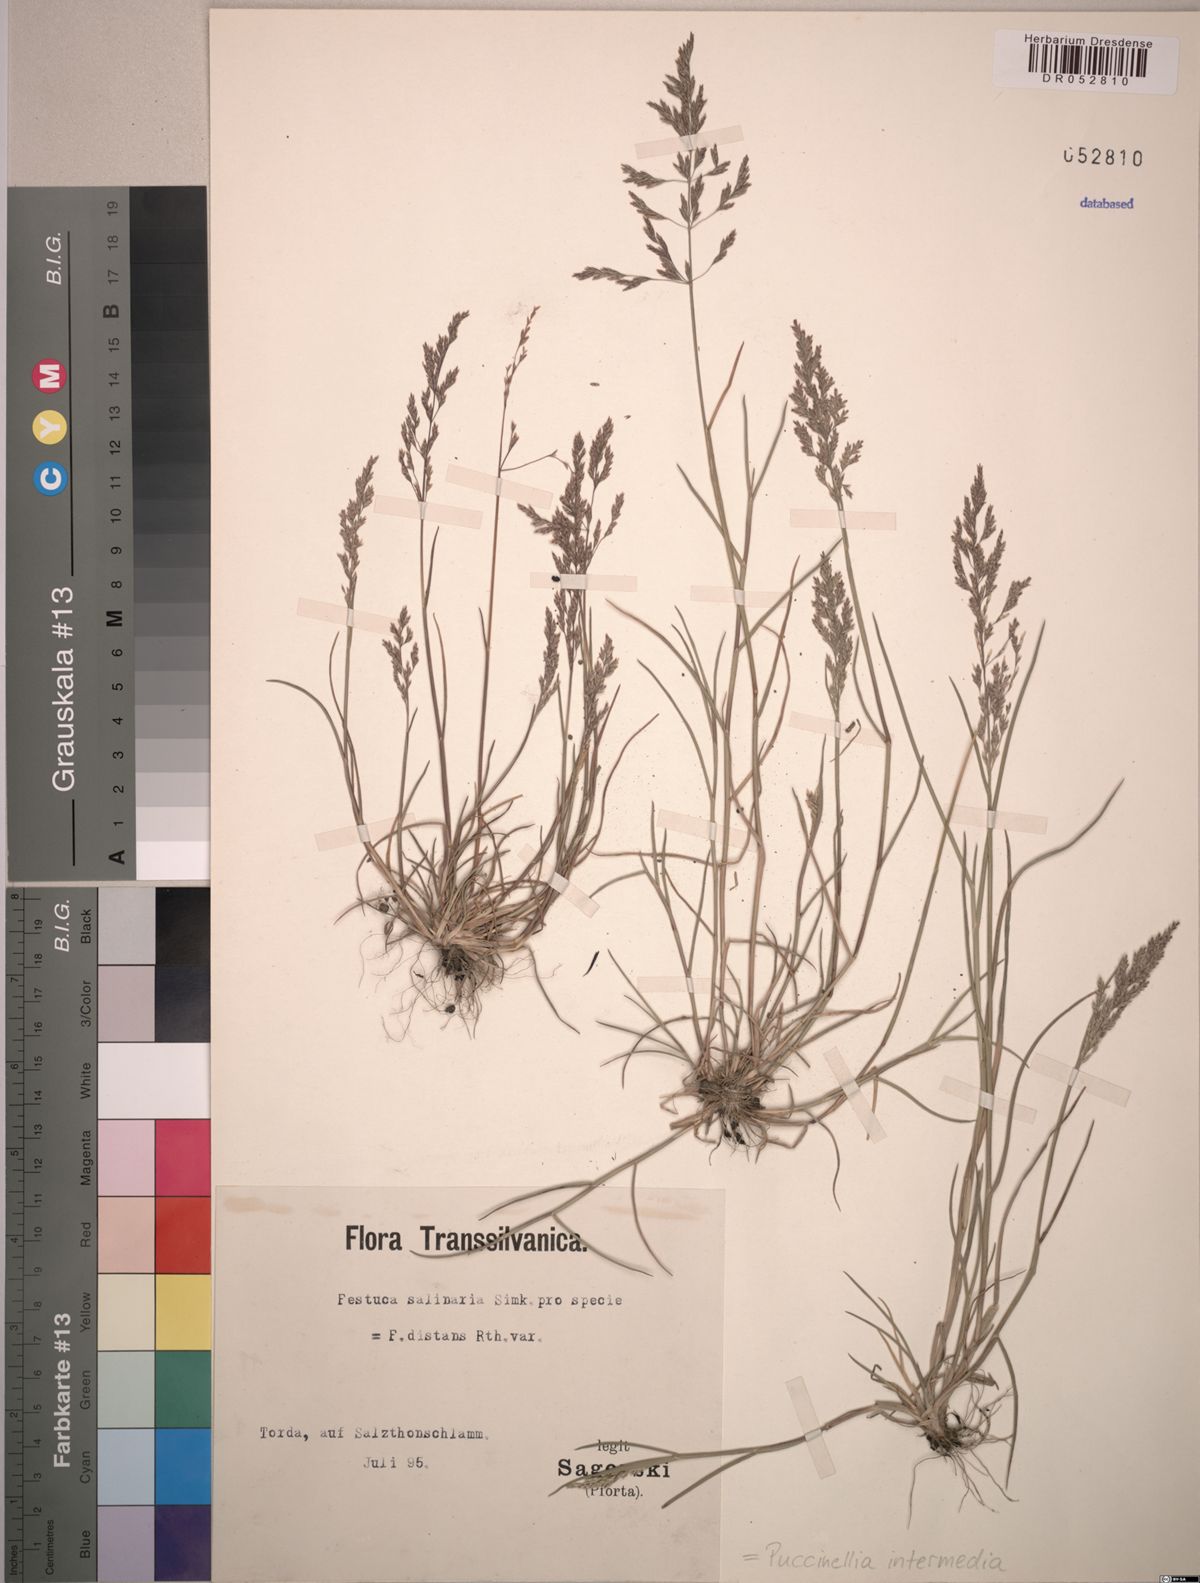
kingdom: Plantae
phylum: Tracheophyta
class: Liliopsida
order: Poales
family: Poaceae
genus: Puccinellia
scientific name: Puccinellia intermedia
